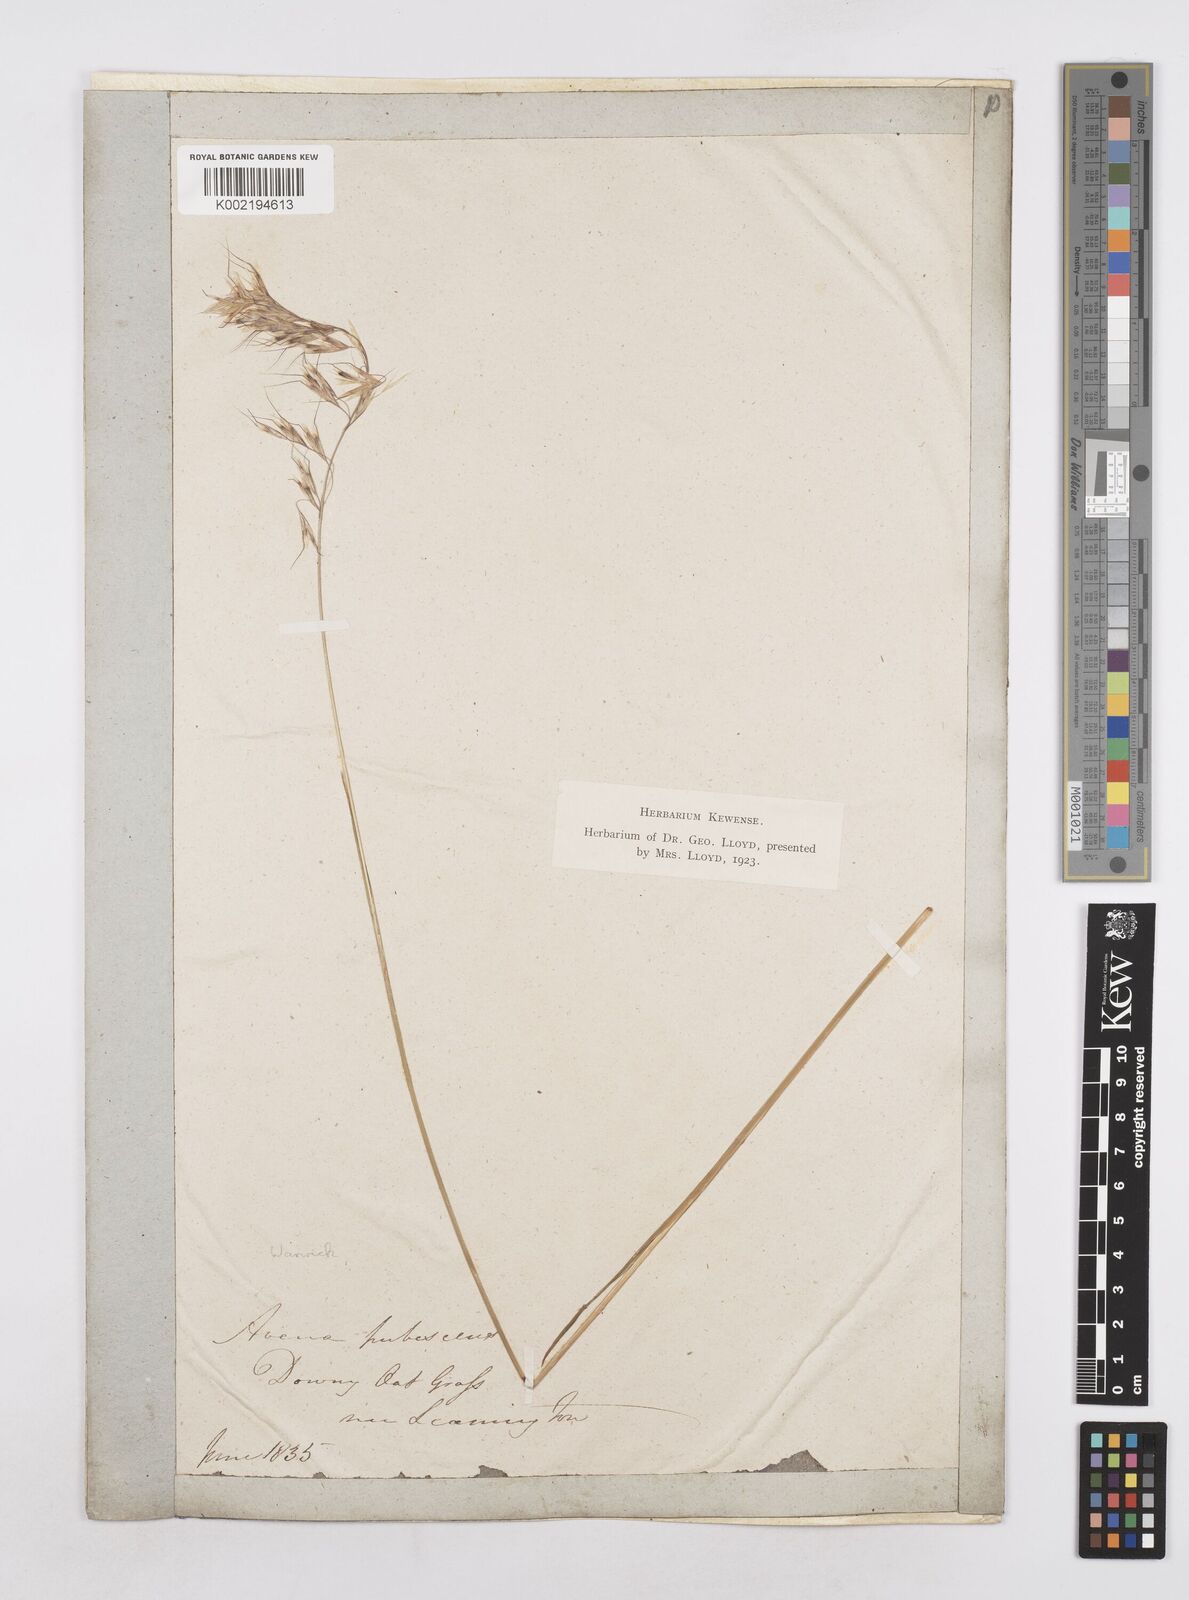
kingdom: Plantae
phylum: Tracheophyta
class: Liliopsida
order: Poales
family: Poaceae
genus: Avenula
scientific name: Avenula pubescens
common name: Downy alpine oatgrass
